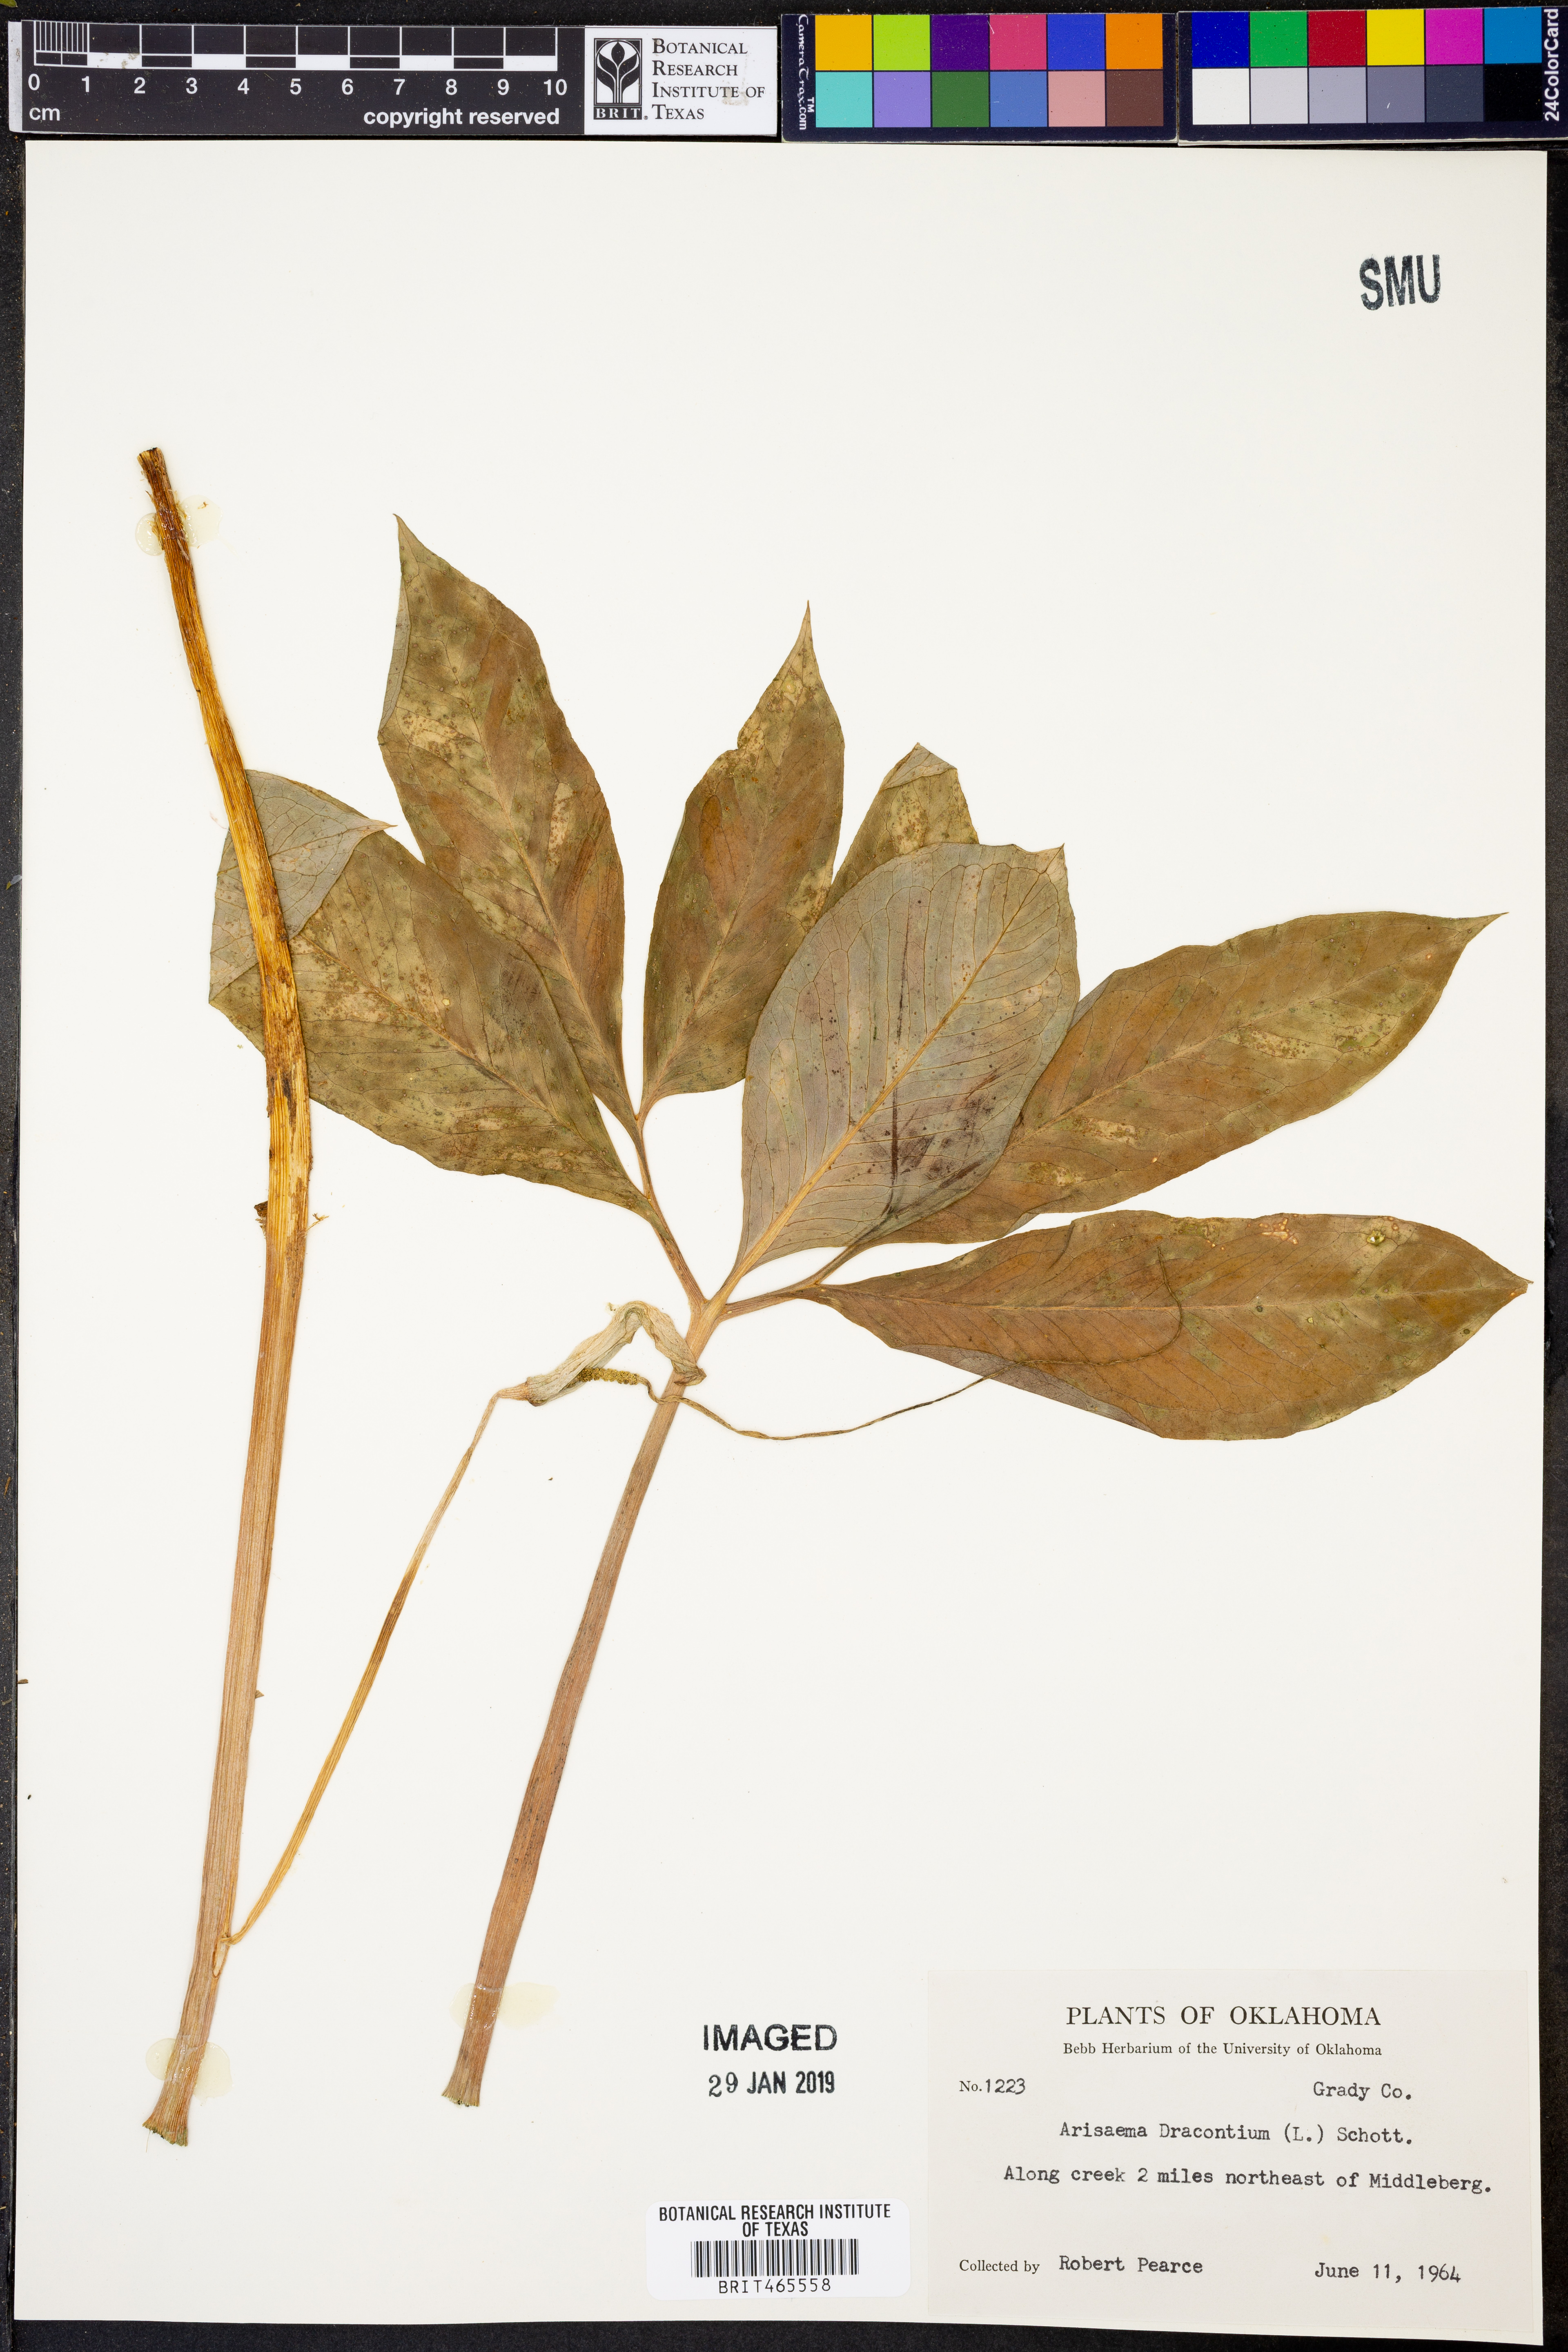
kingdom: Plantae
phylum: Tracheophyta
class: Liliopsida
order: Alismatales
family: Araceae
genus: Arisaema
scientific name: Arisaema dracontium
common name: Dragon-arum
